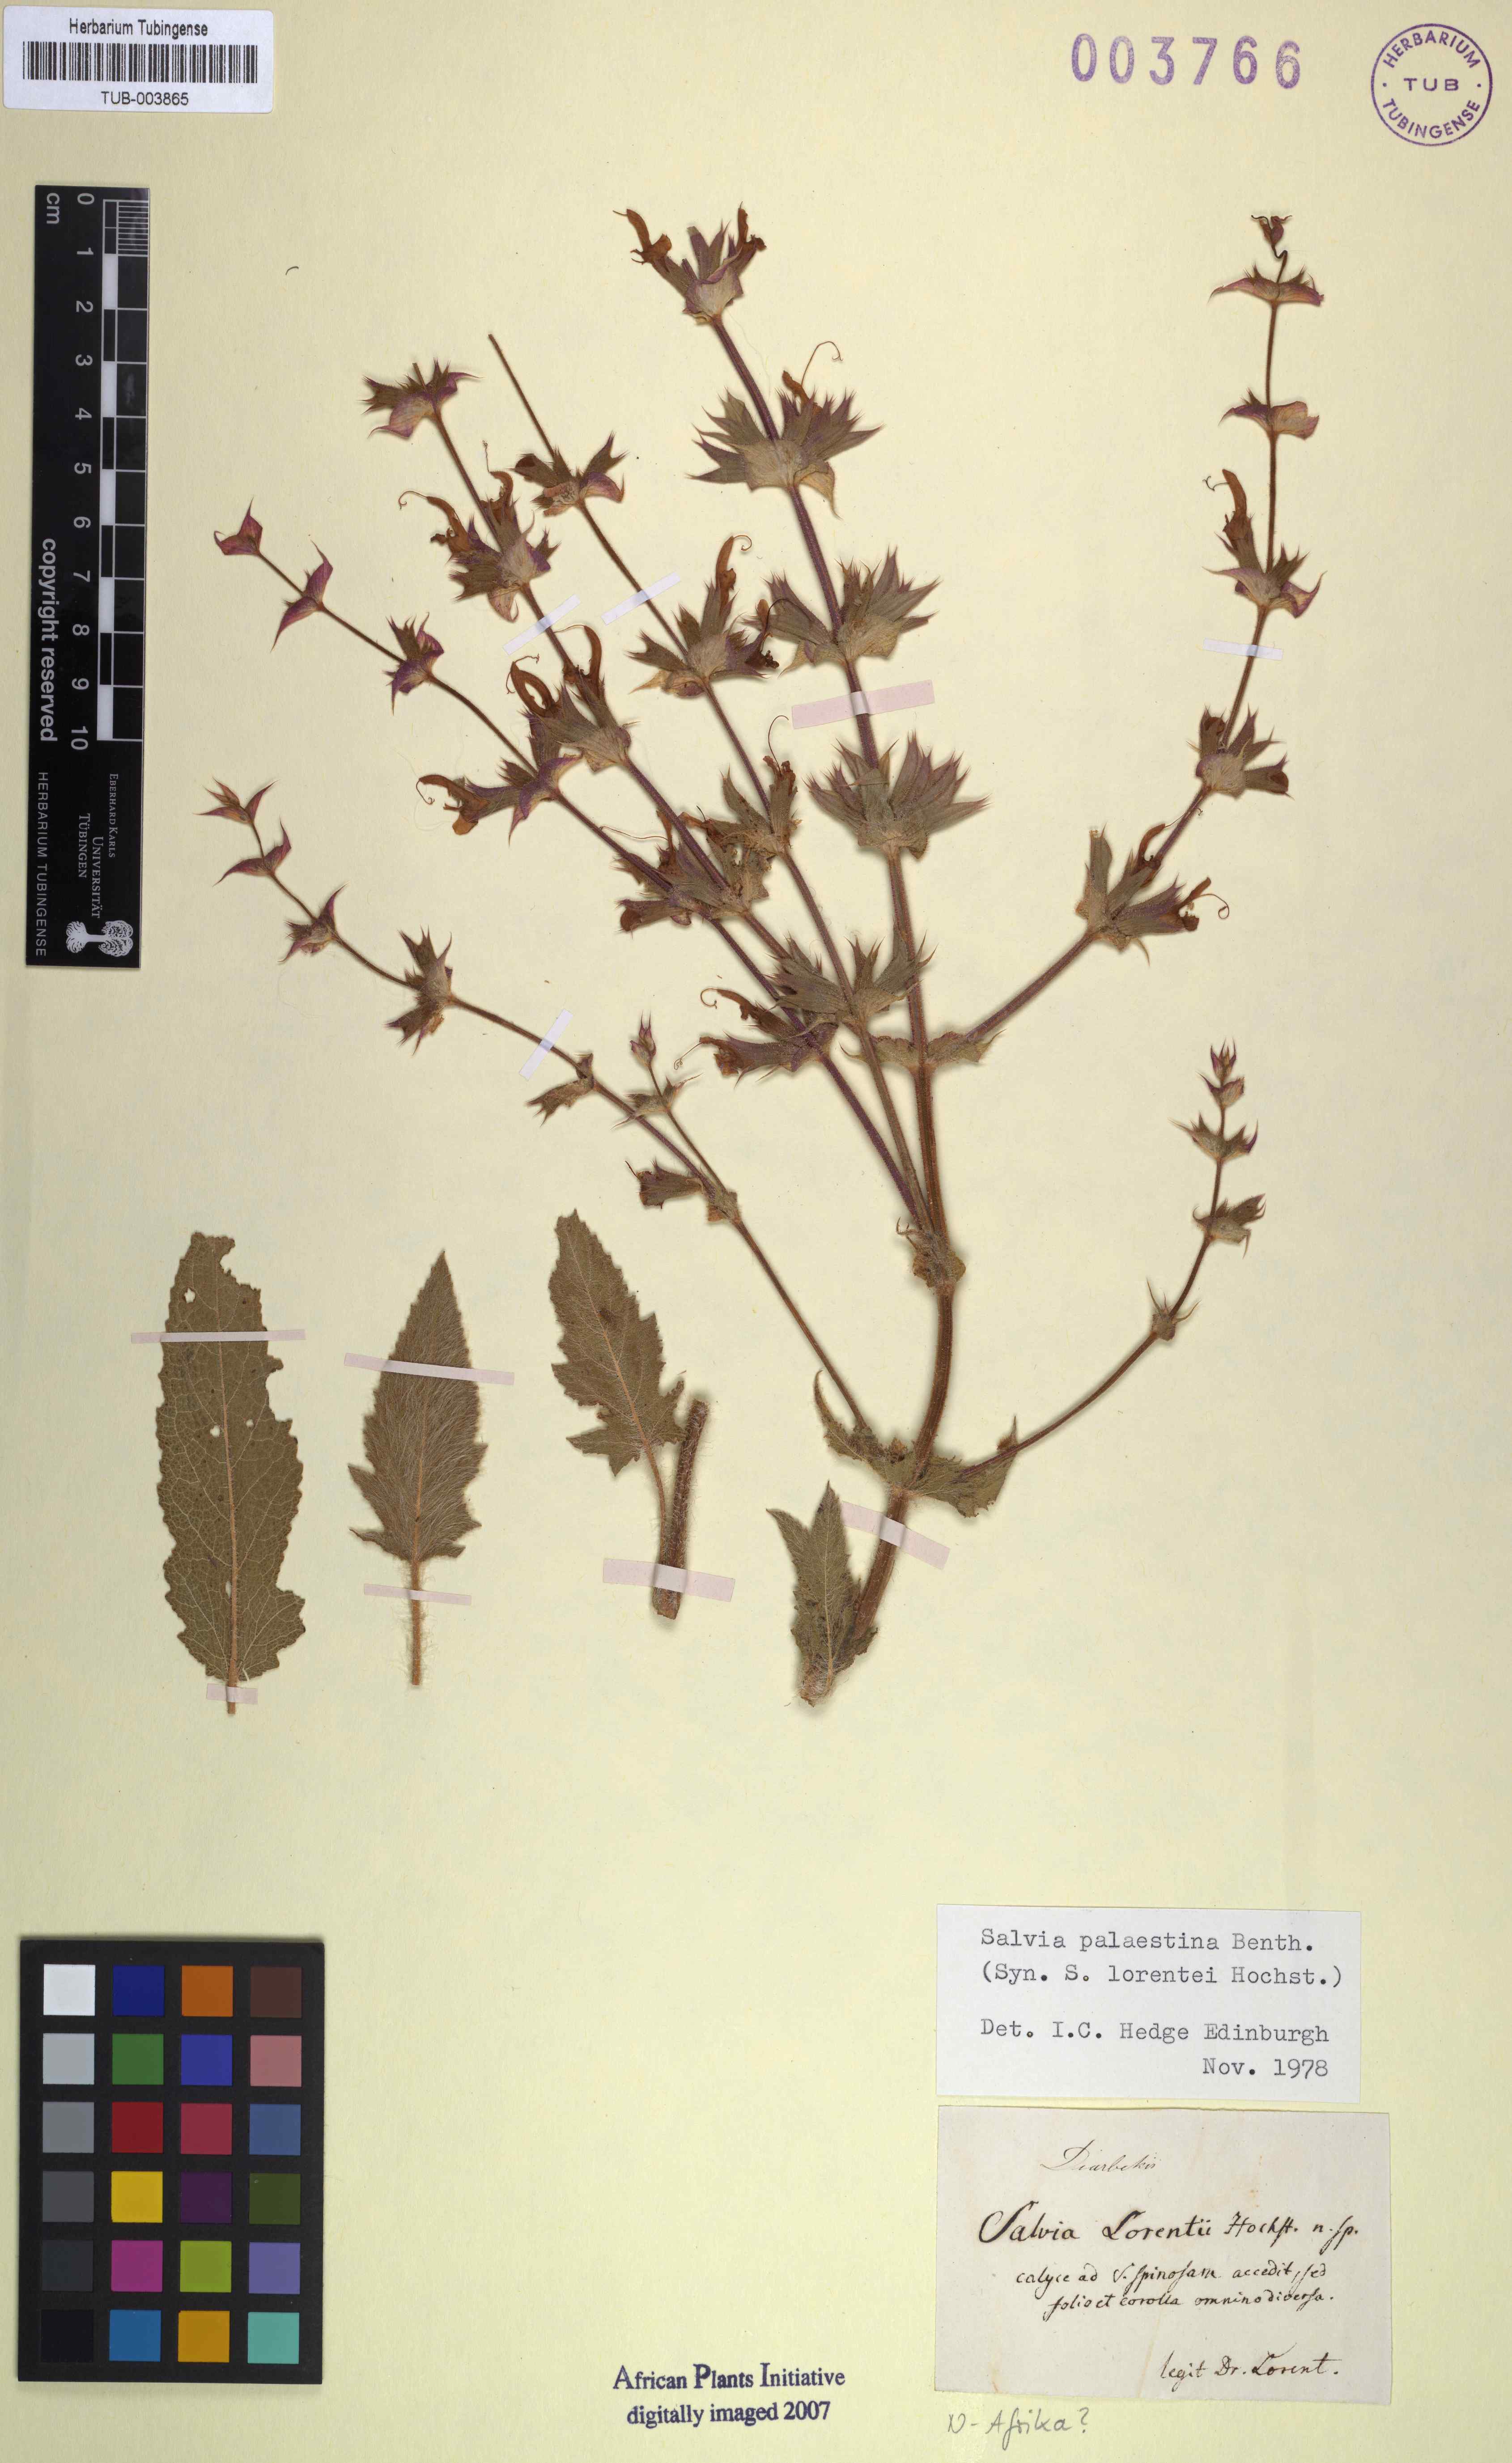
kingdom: Plantae
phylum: Tracheophyta
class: Magnoliopsida
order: Lamiales
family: Lamiaceae
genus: Salvia
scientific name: Salvia palaestina
